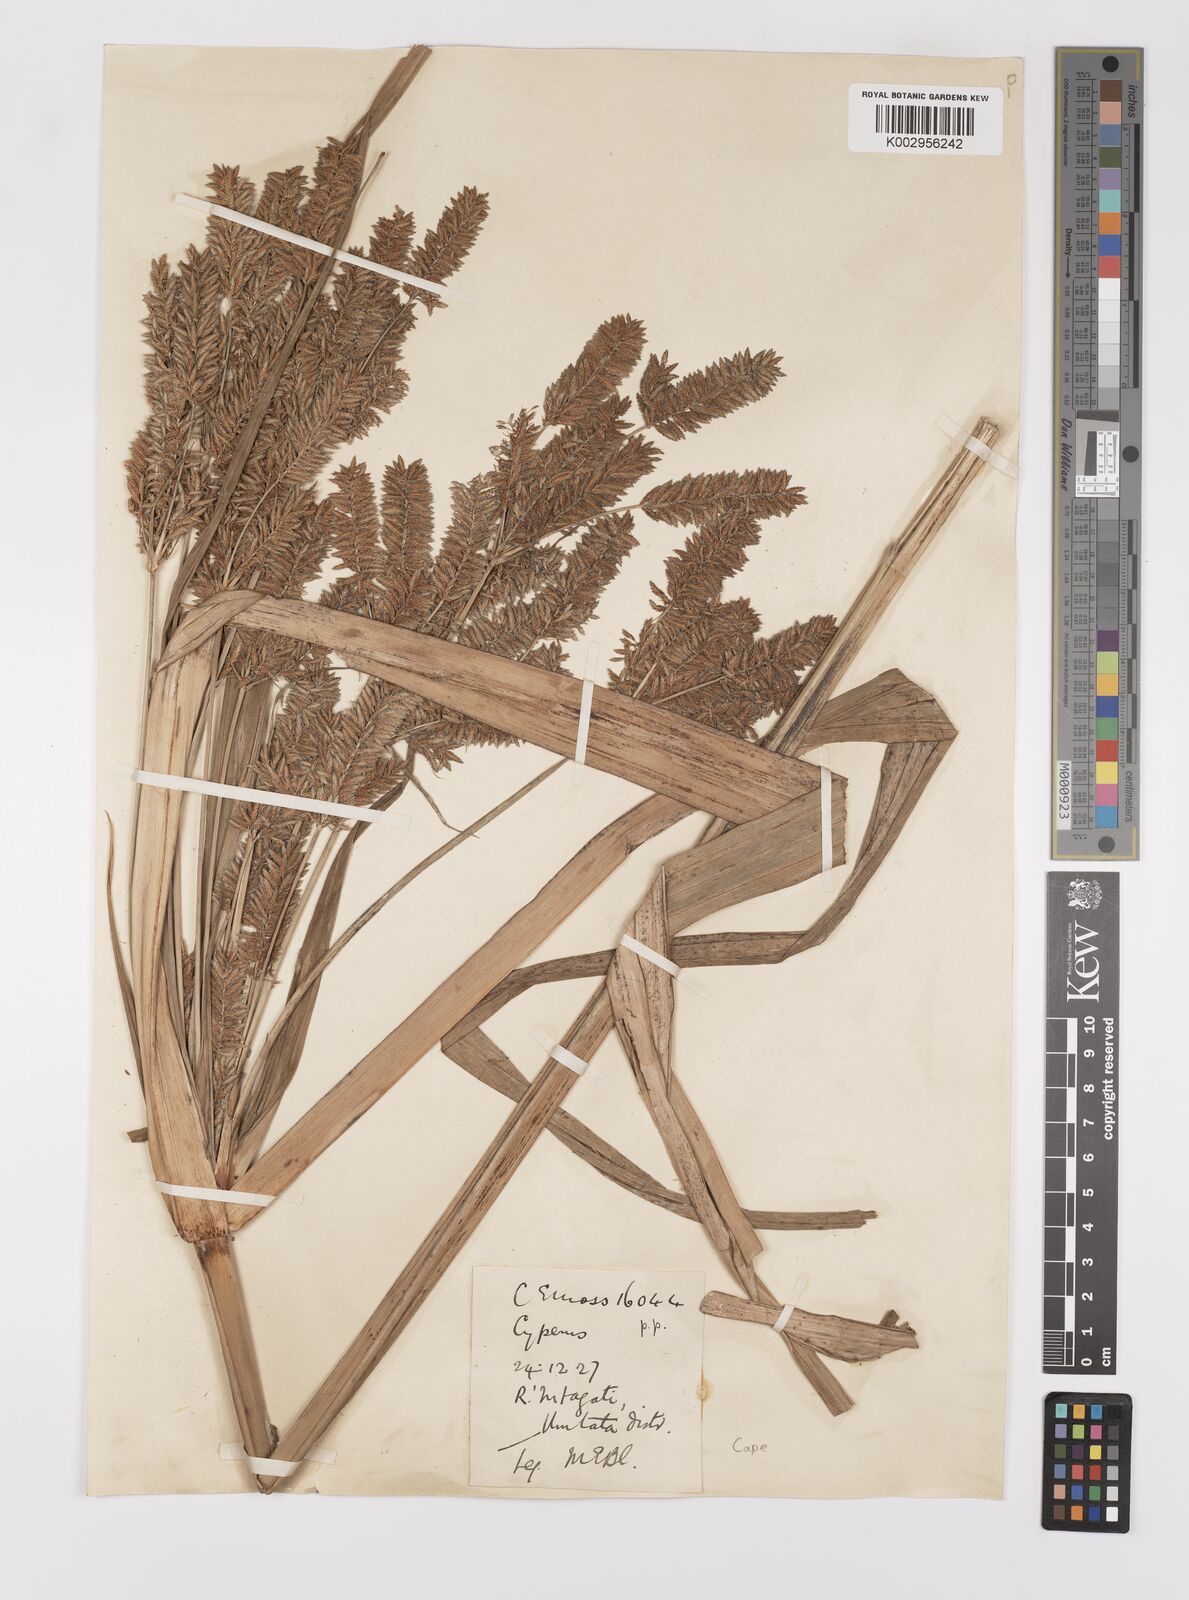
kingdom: Plantae
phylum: Tracheophyta
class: Liliopsida
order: Poales
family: Cyperaceae
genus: Cyperus
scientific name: Cyperus dives
